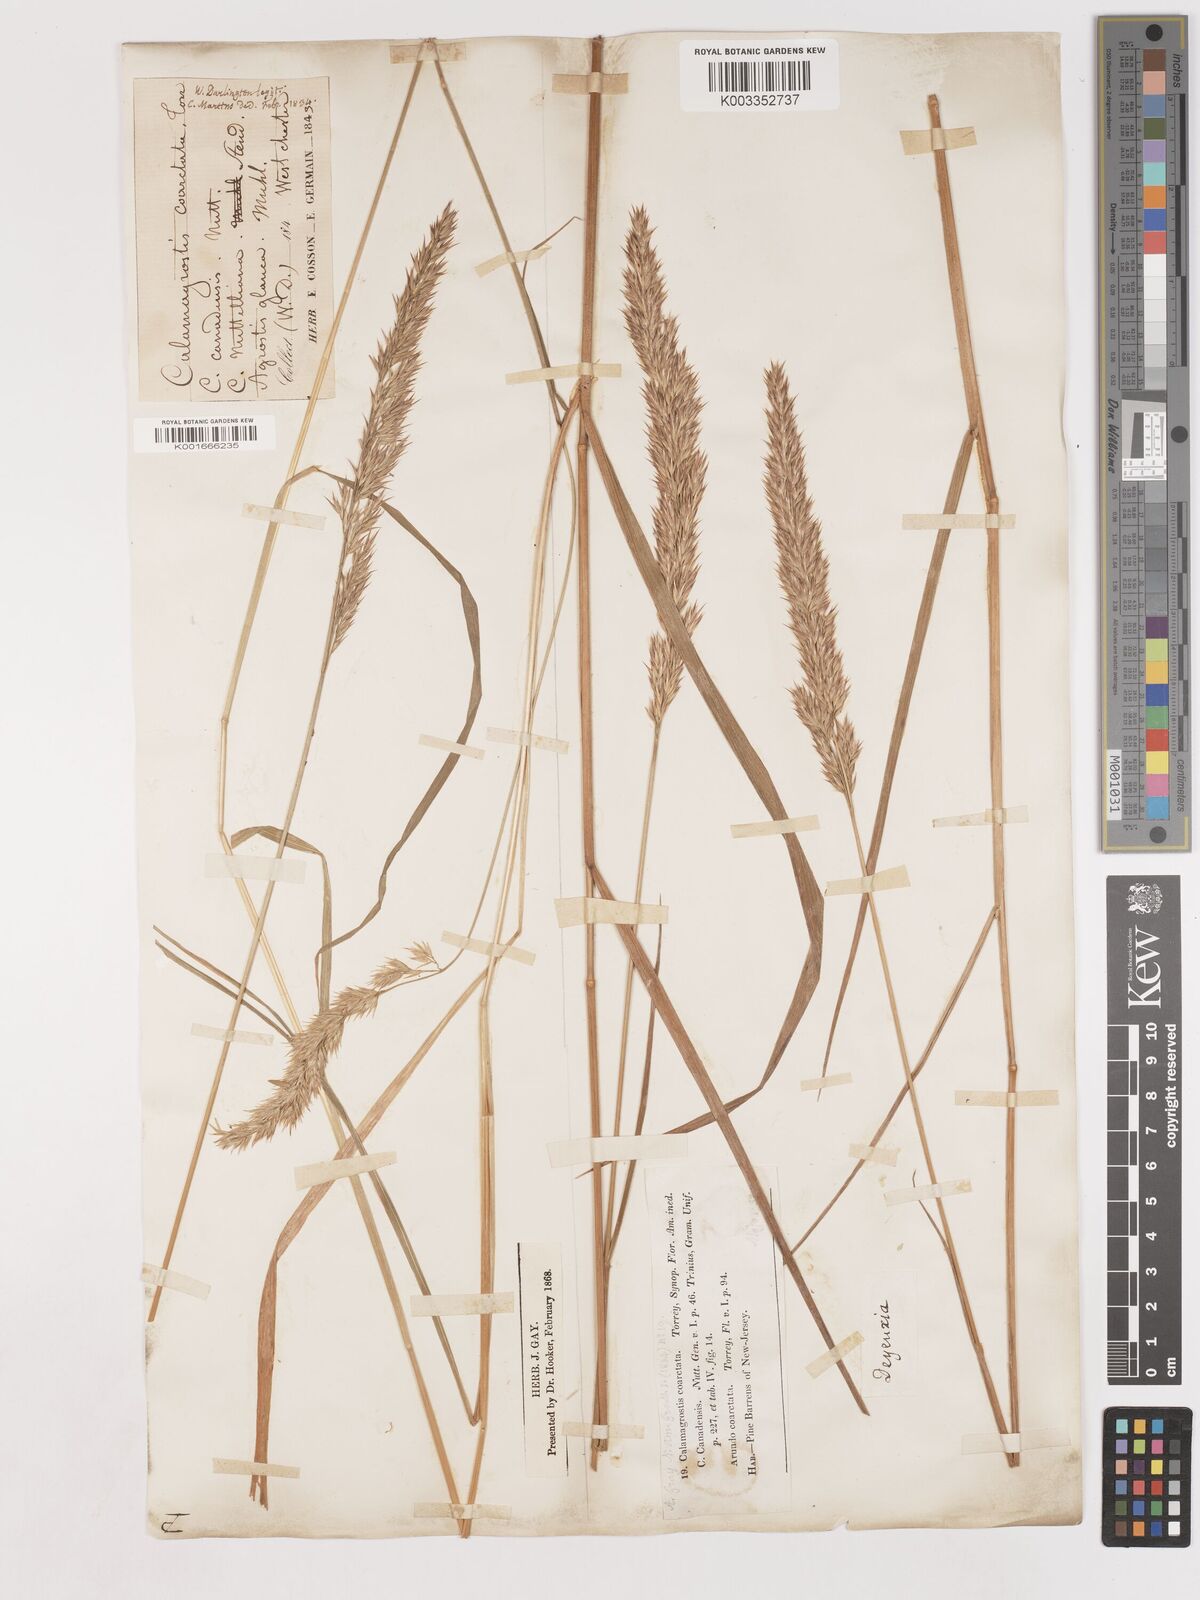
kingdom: Plantae
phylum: Tracheophyta
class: Liliopsida
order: Poales
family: Poaceae
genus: Calamagrostis
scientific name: Calamagrostis canadensis
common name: Canada bluejoint
